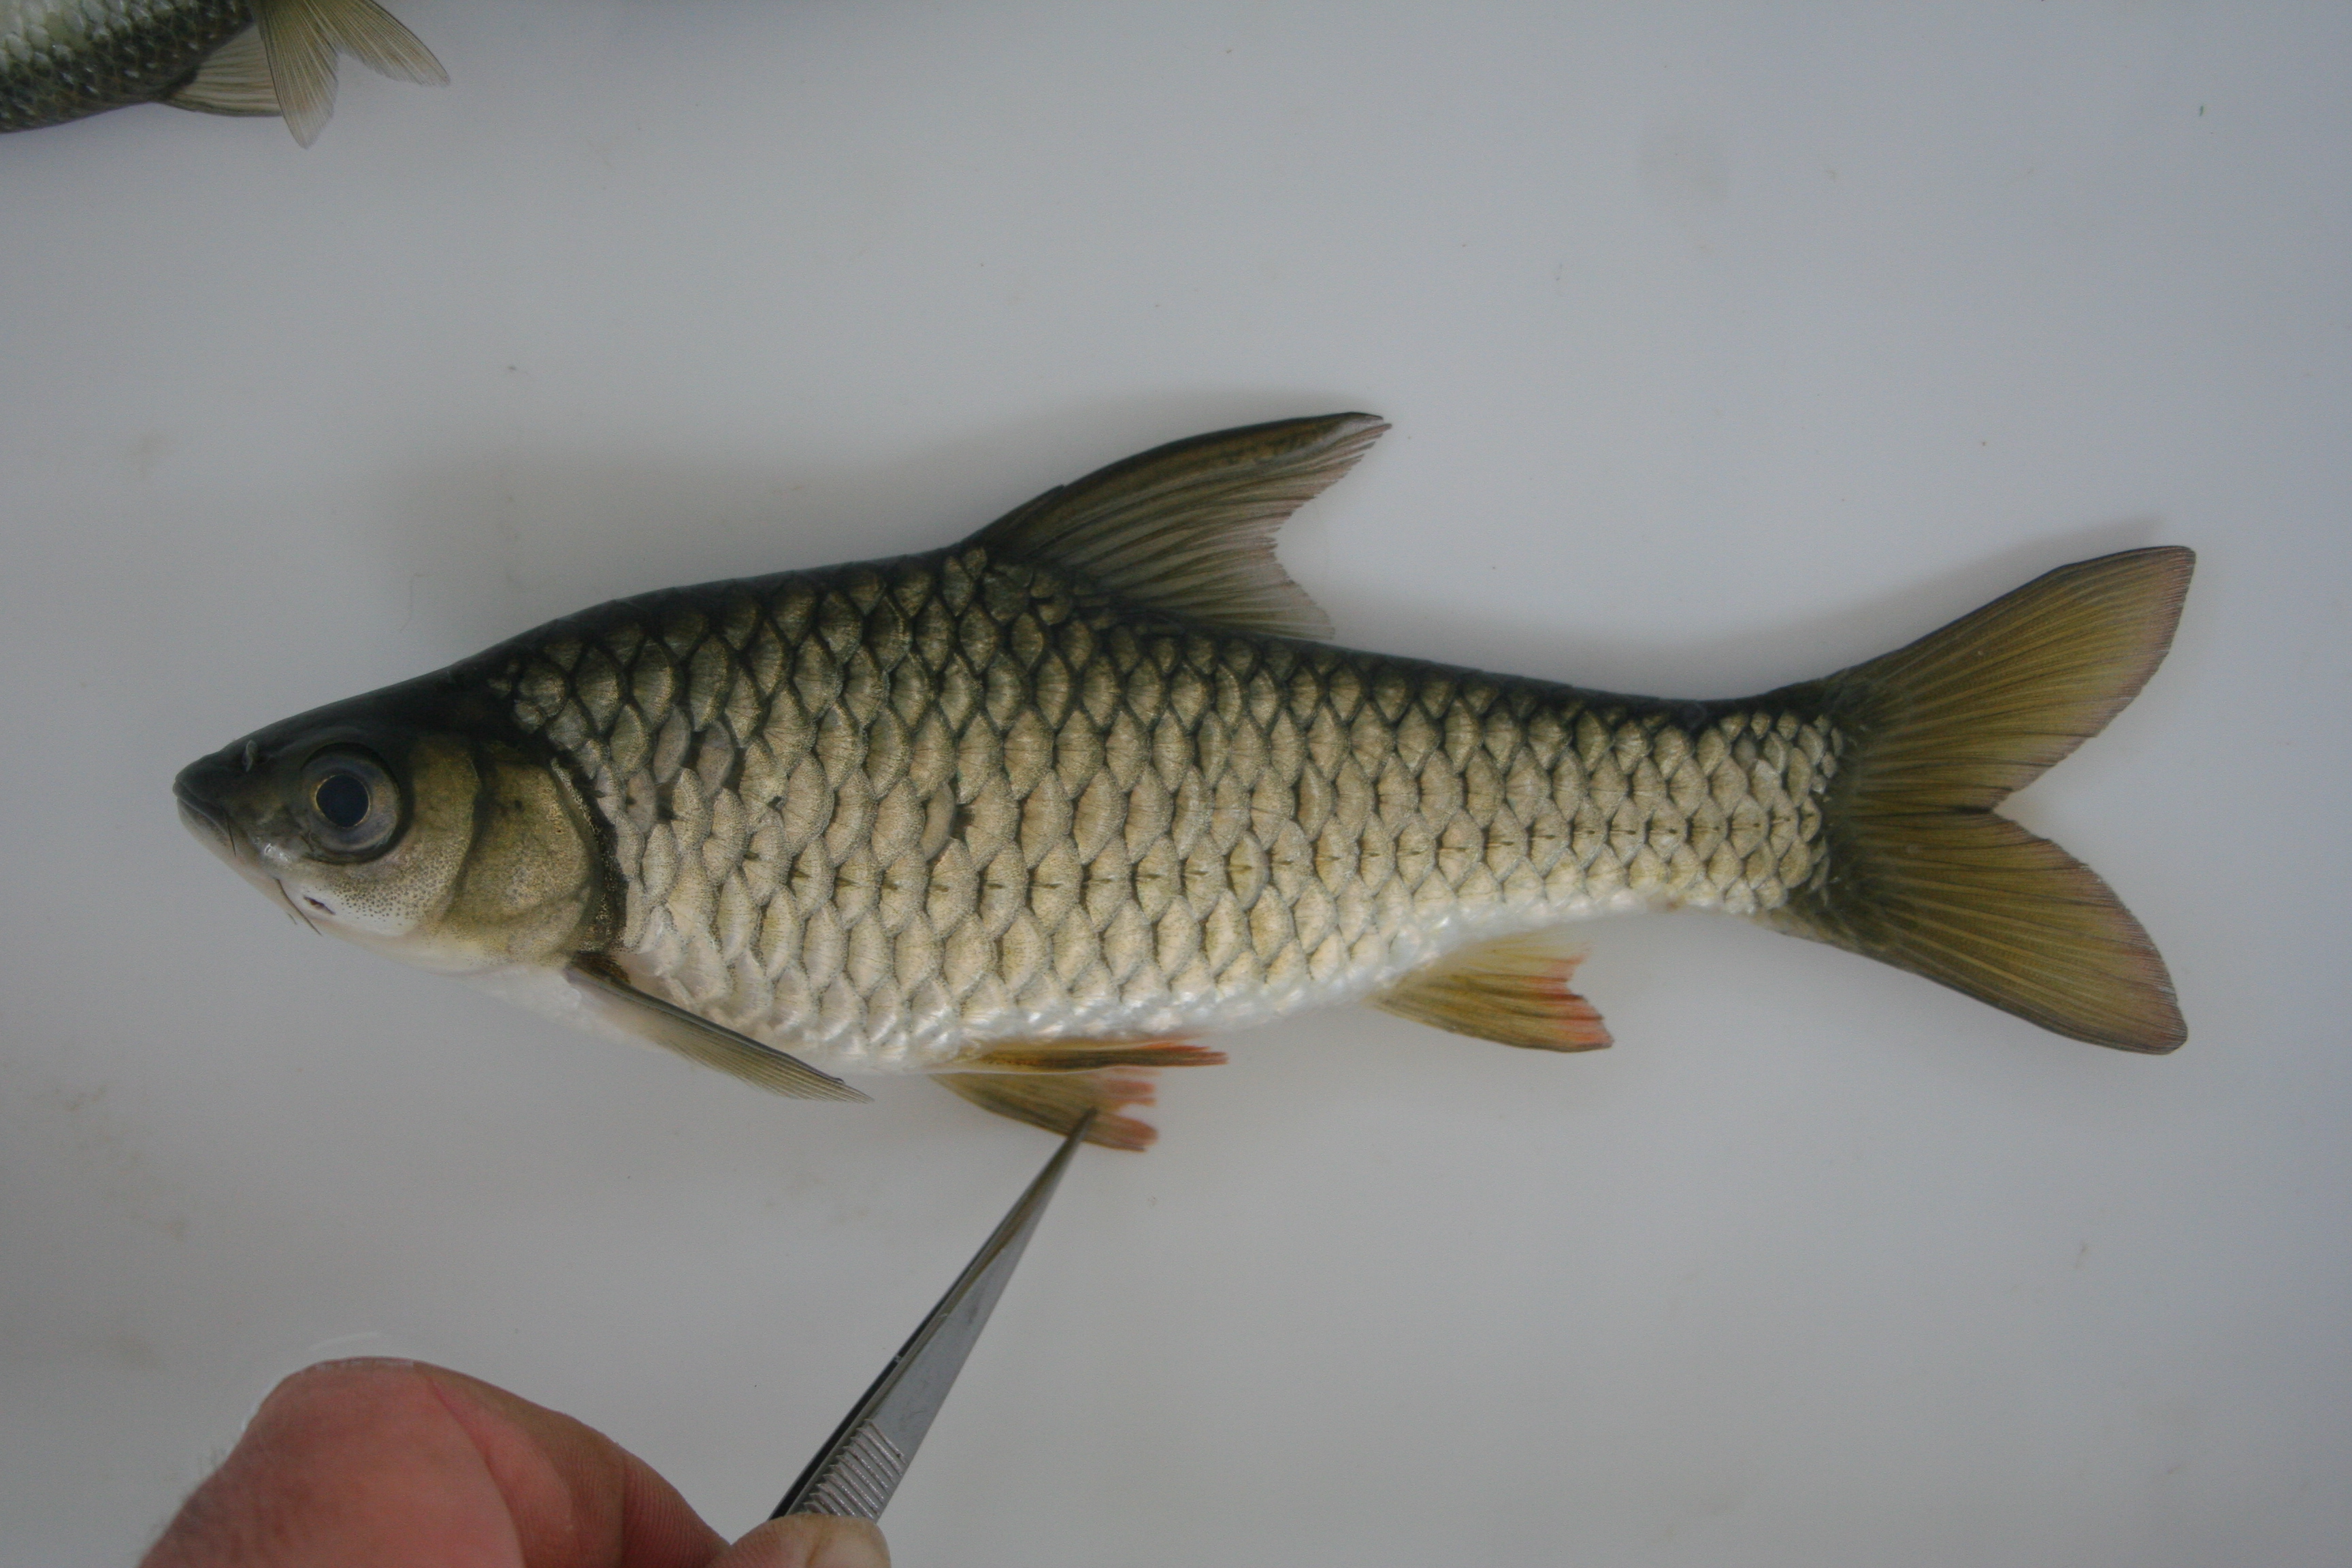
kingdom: Animalia
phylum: Chordata
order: Cypriniformes
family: Cyprinidae
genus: Enteromius
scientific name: Enteromius argenteus
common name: Rosefin barb
